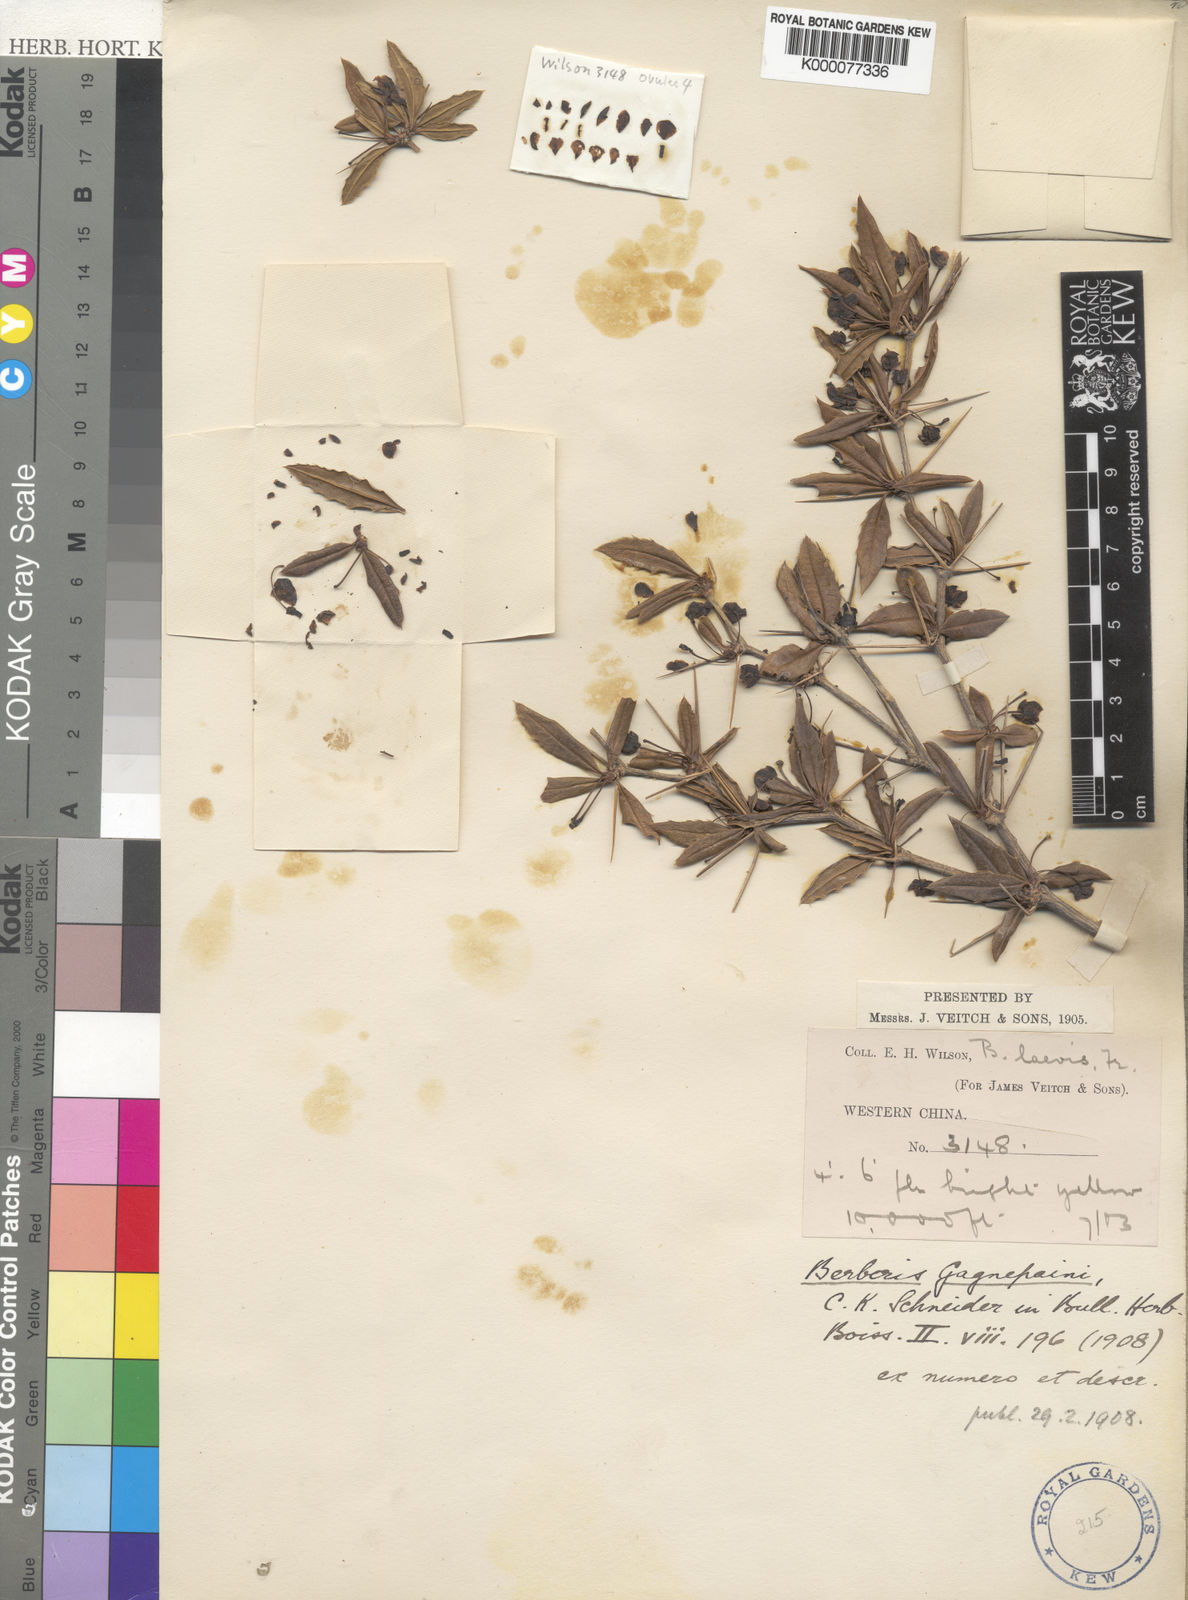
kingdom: Plantae
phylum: Tracheophyta
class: Magnoliopsida
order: Ranunculales
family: Berberidaceae
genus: Berberis
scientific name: Berberis gagnepainii
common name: Gagnepain's barberry
